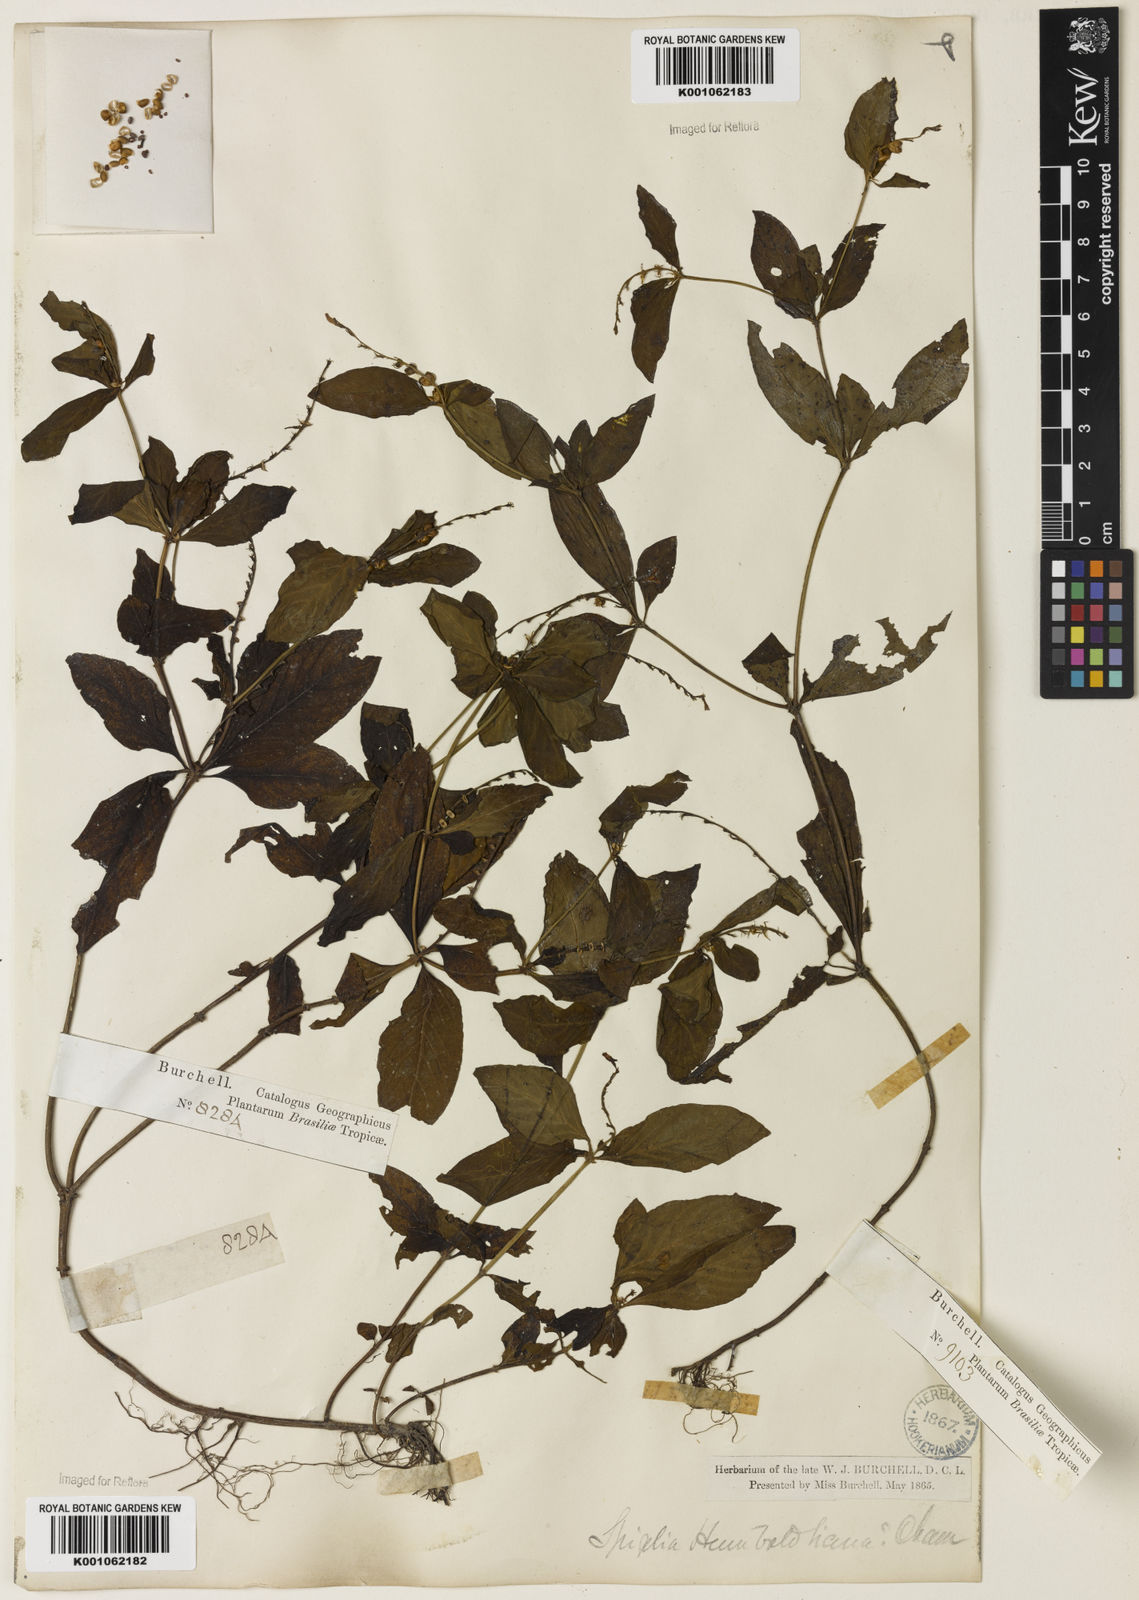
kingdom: Plantae
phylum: Tracheophyta
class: Magnoliopsida
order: Gentianales
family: Loganiaceae
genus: Spigelia
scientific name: Spigelia humboldtiana
